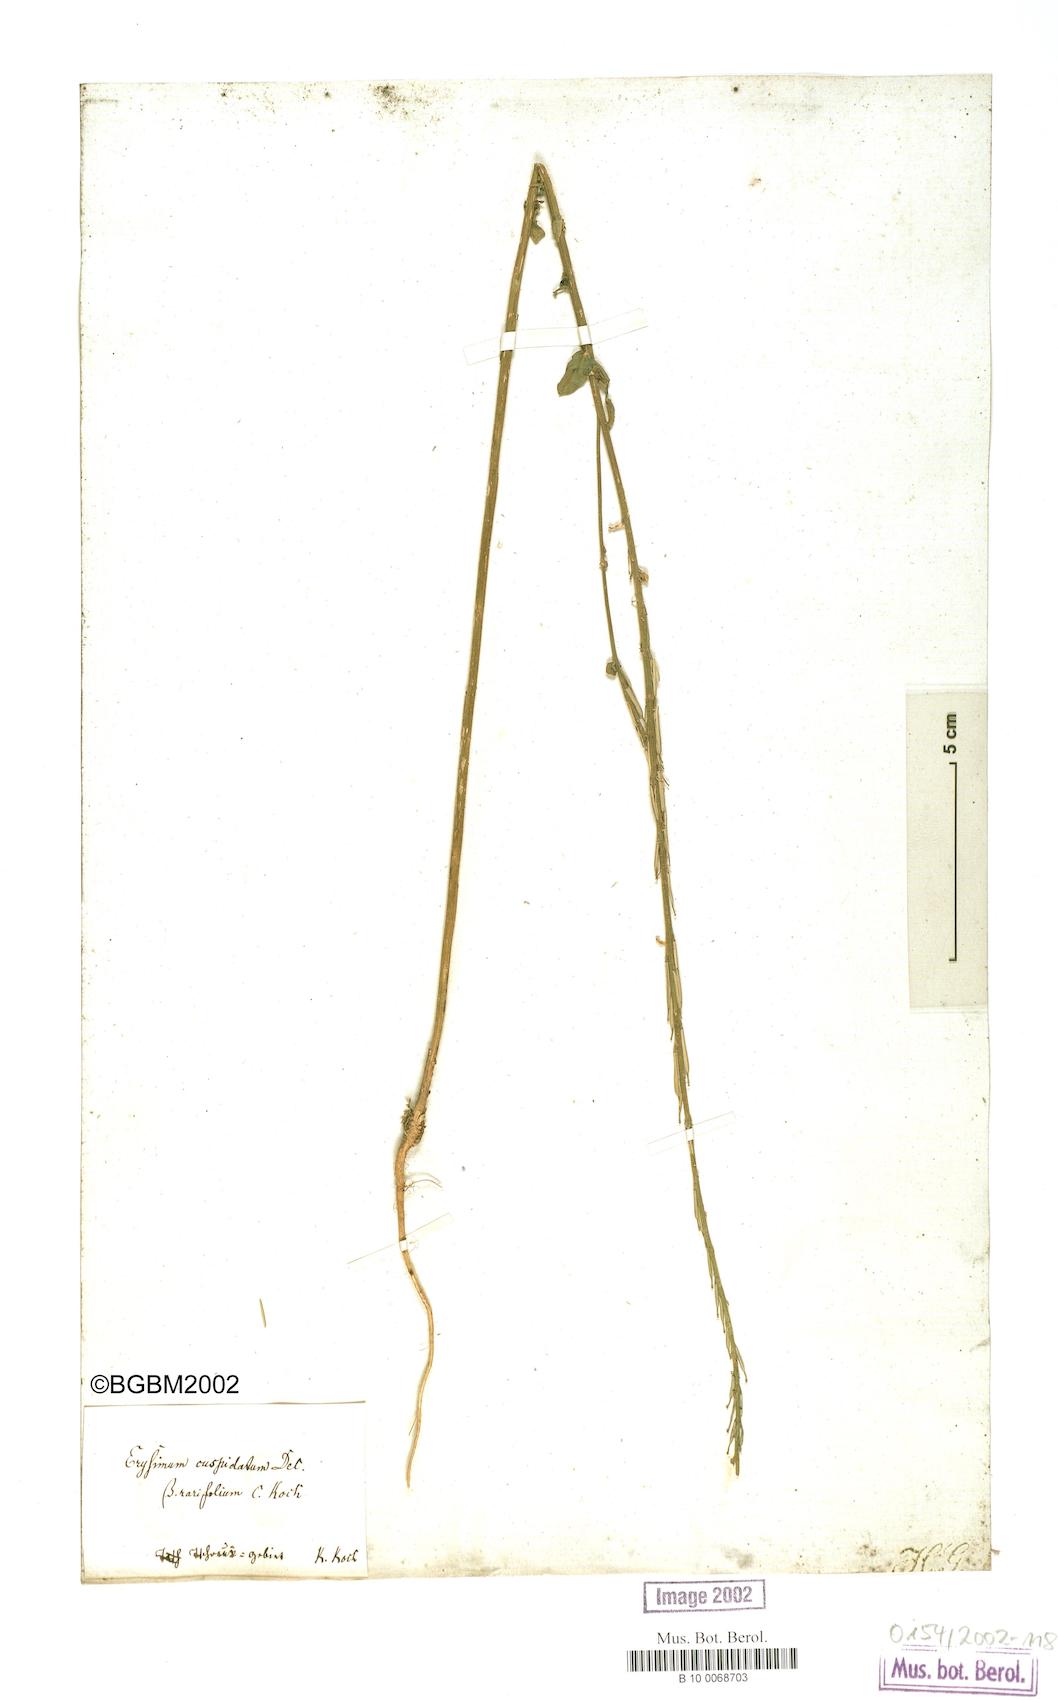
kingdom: Plantae
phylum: Tracheophyta
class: Magnoliopsida
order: Brassicales
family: Brassicaceae
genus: Erysimum
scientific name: Erysimum cuspidatum
